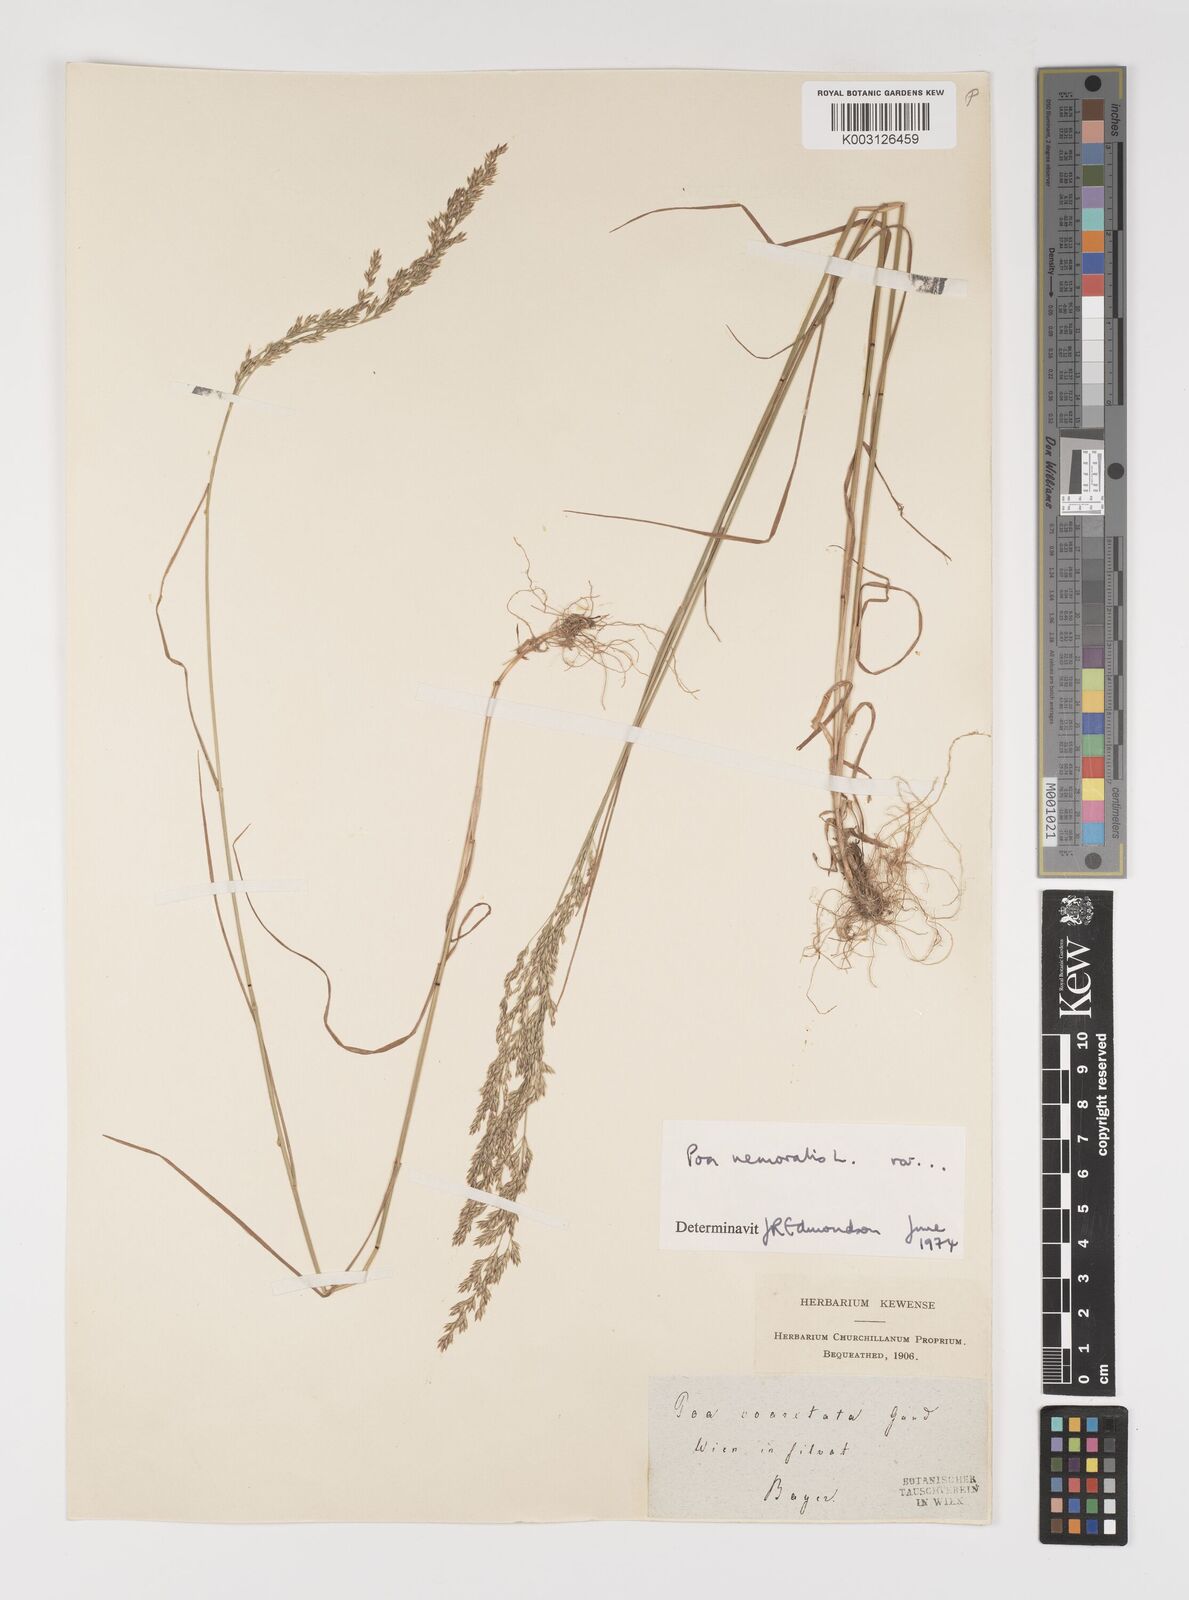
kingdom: Plantae
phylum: Tracheophyta
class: Liliopsida
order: Poales
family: Poaceae
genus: Poa
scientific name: Poa nemoralis
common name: Wood bluegrass
